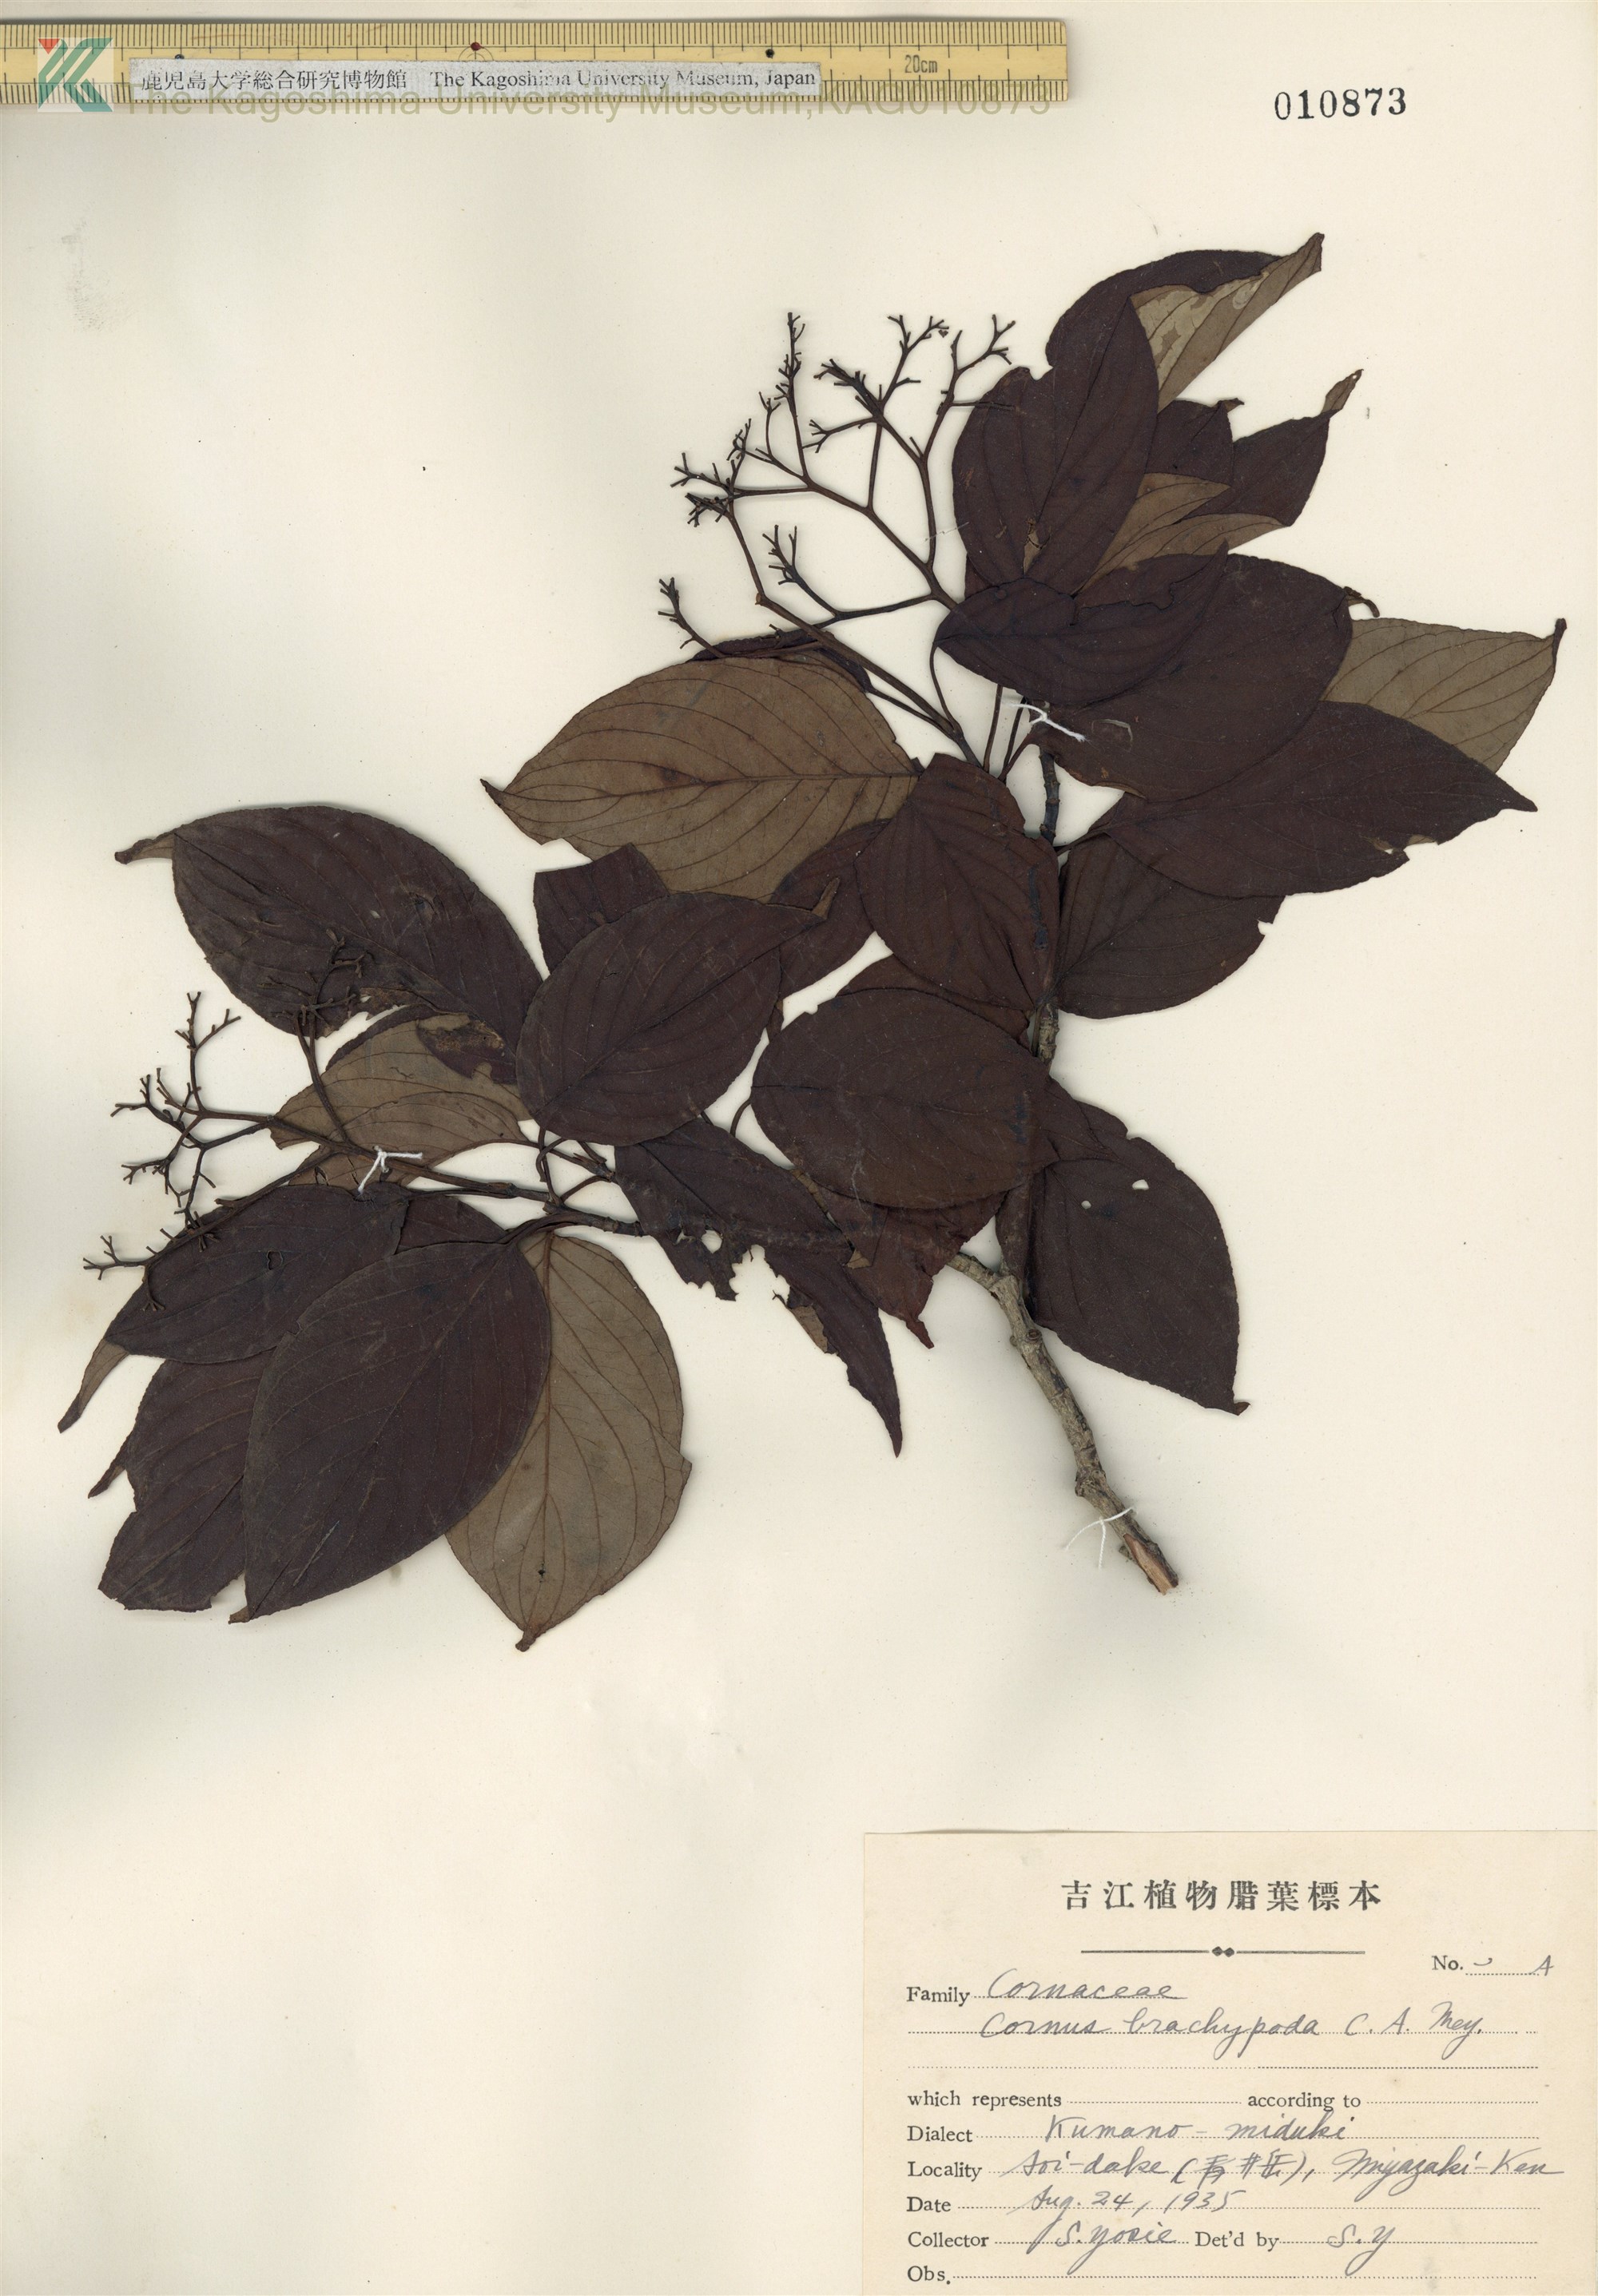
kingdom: Plantae
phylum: Tracheophyta
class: Magnoliopsida
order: Cornales
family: Cornaceae
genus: Cornus
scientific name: Cornus macrophylla
